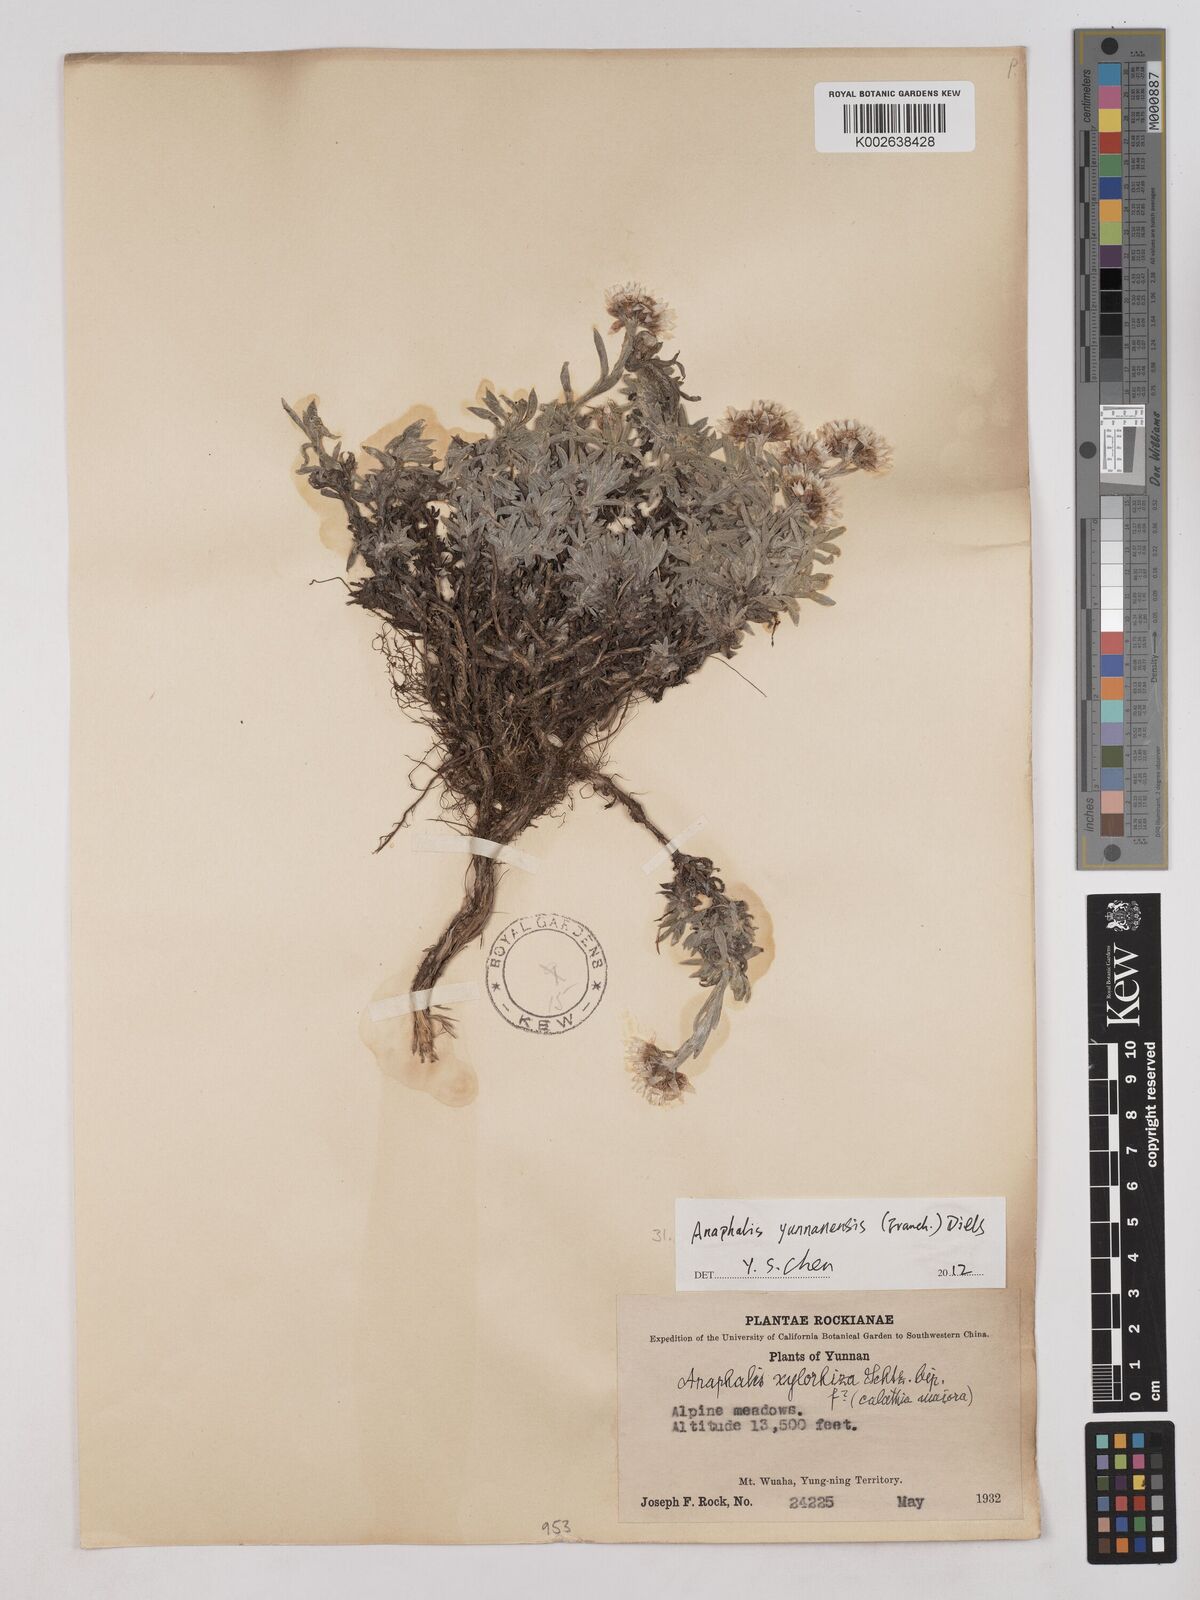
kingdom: Plantae
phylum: Tracheophyta
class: Magnoliopsida
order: Asterales
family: Asteraceae
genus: Anaphalis
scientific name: Anaphalis yunnanensis
